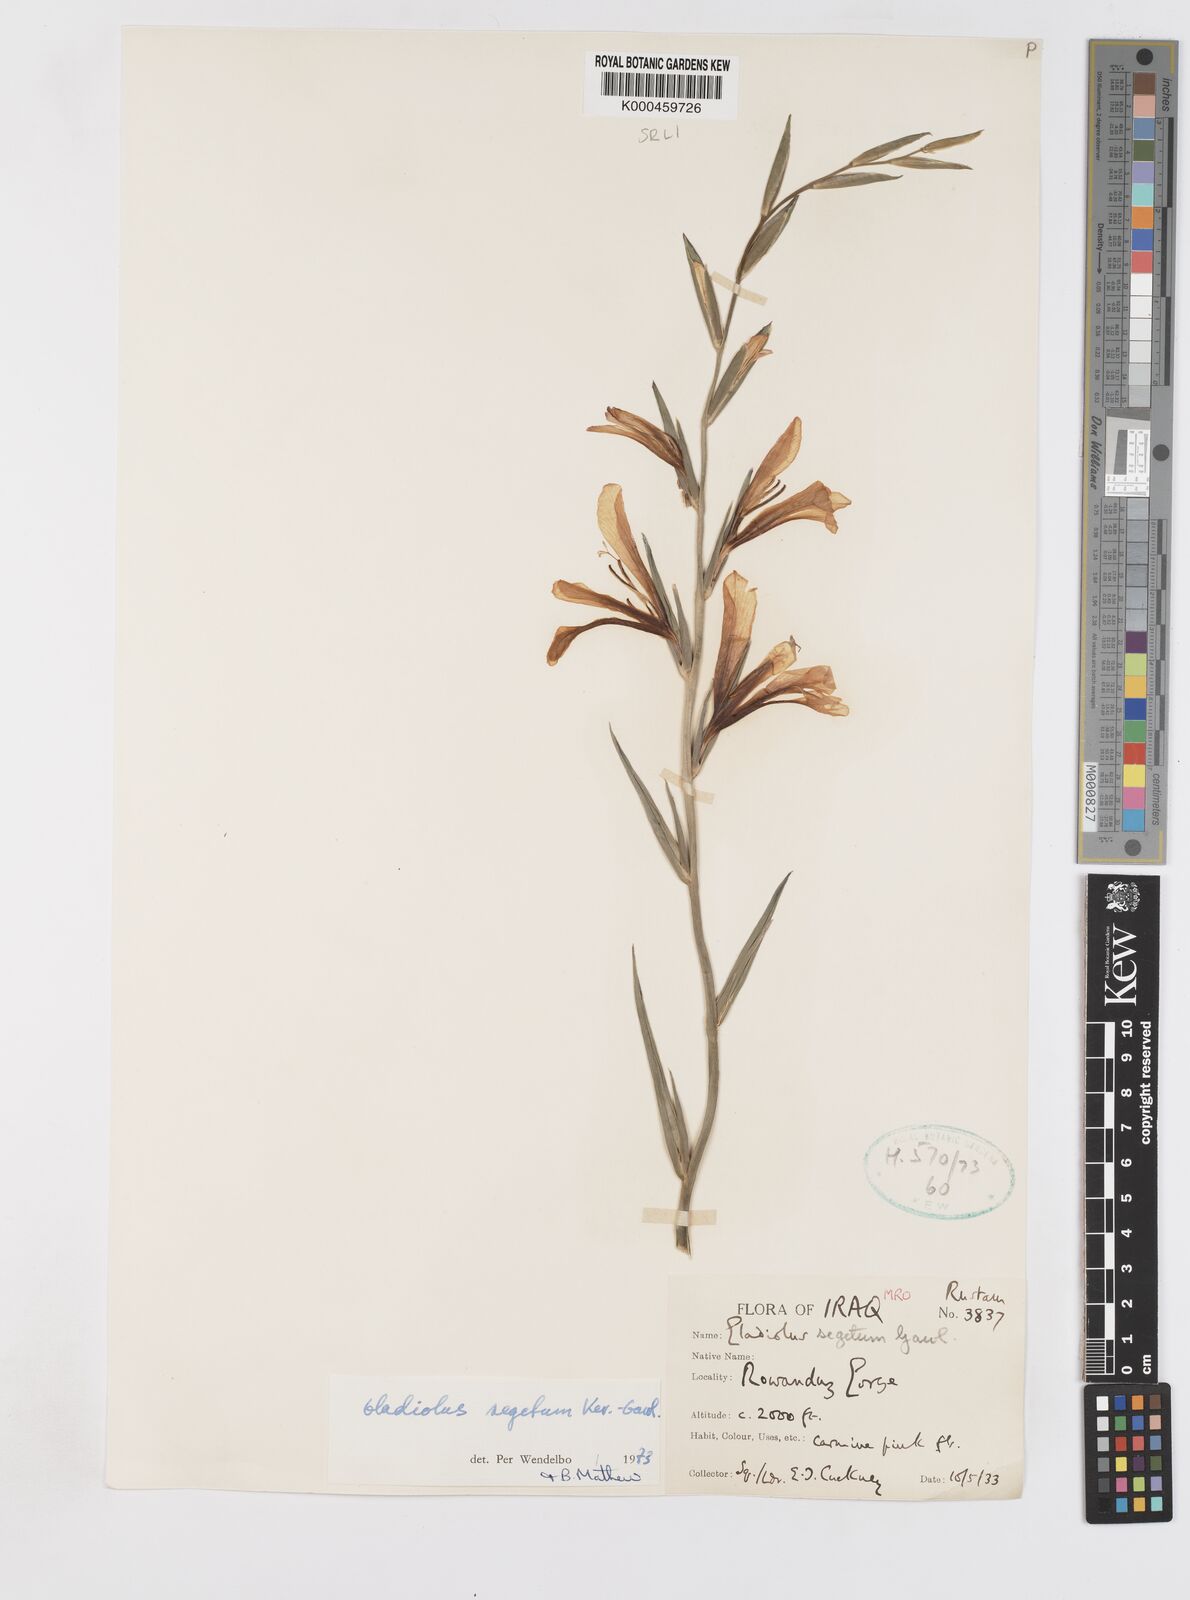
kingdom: Plantae
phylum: Tracheophyta
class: Liliopsida
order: Asparagales
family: Iridaceae
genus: Gladiolus
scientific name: Gladiolus italicus
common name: Field gladiolus
